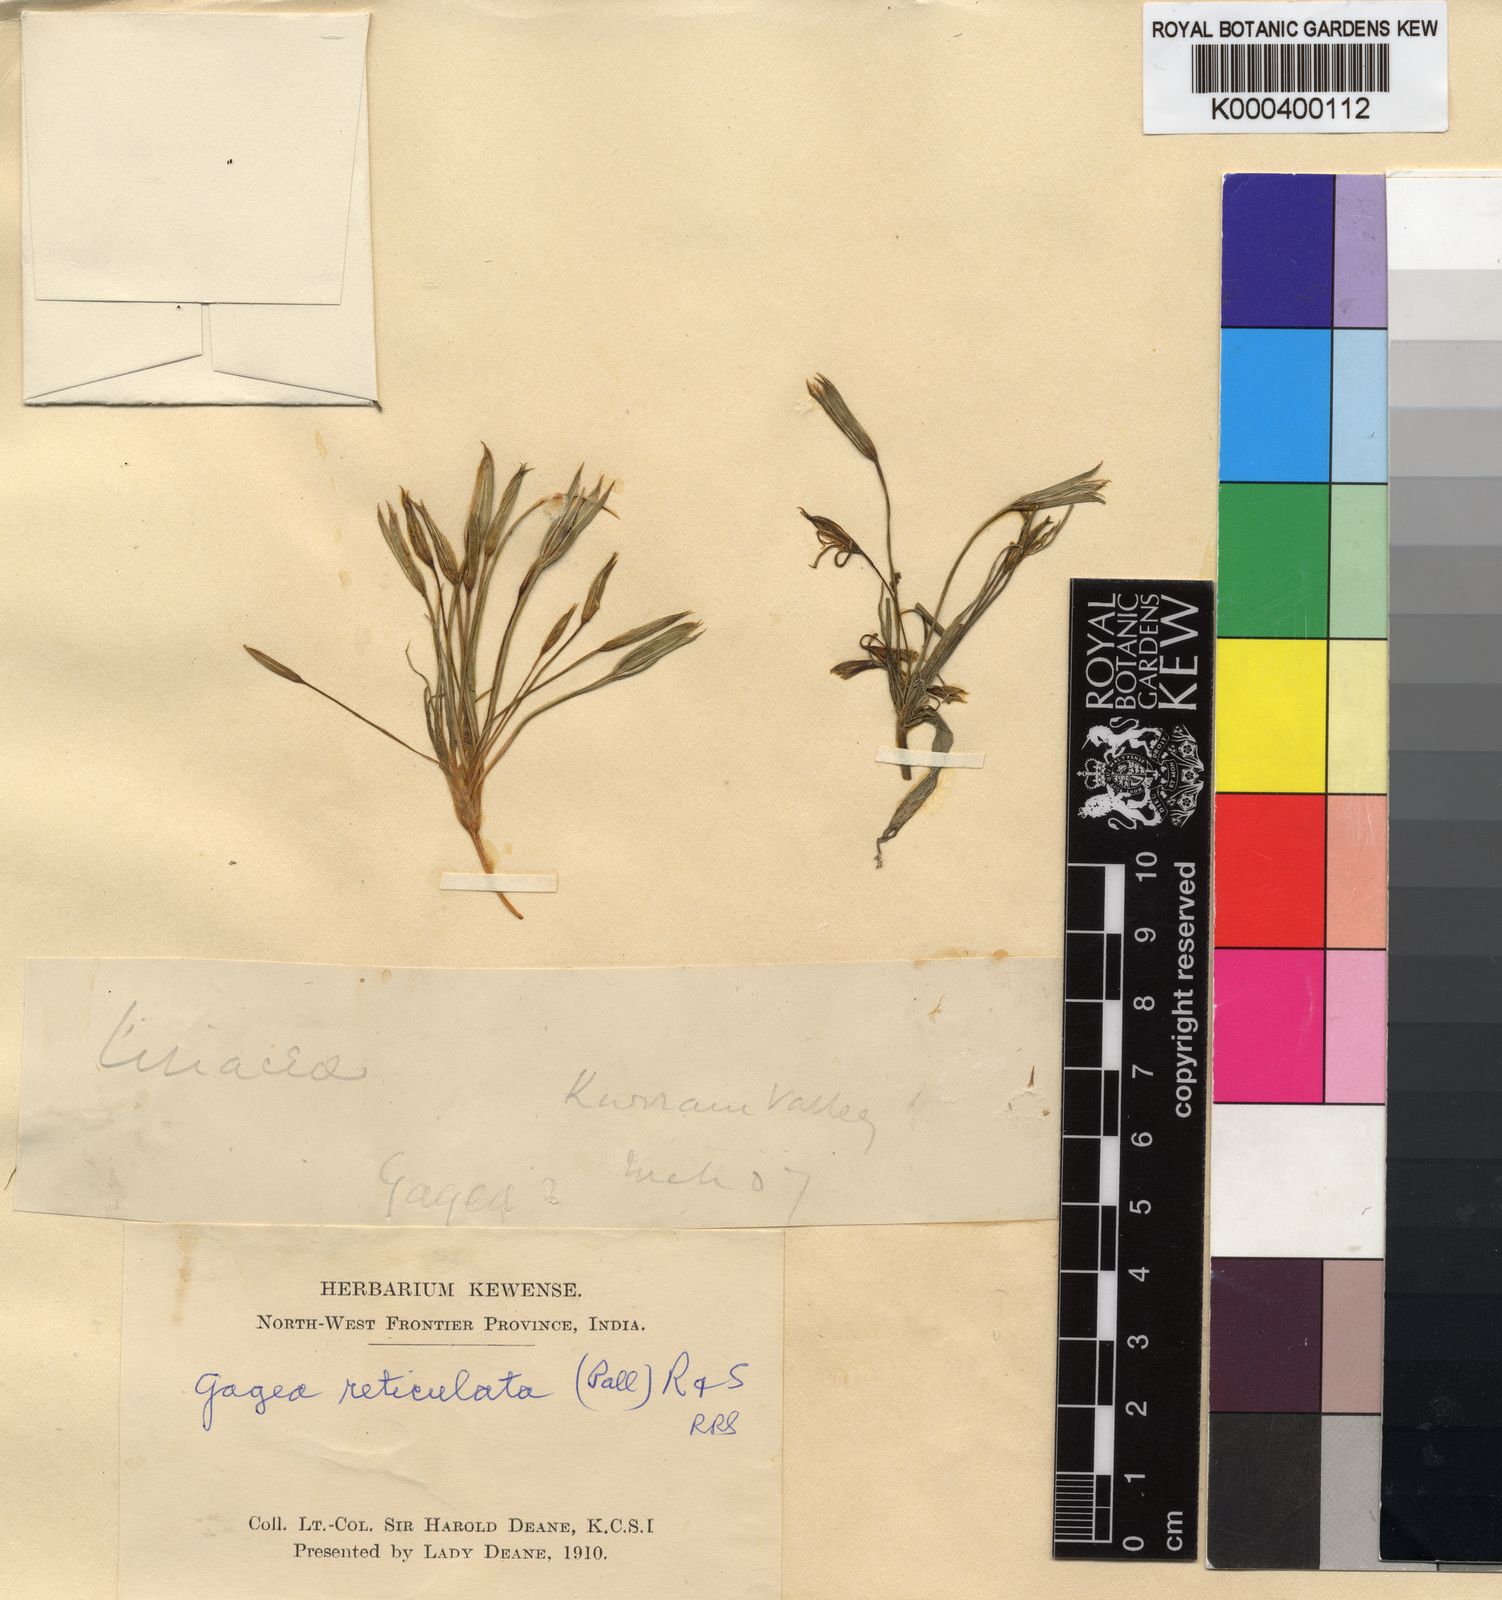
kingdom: Plantae
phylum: Tracheophyta
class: Liliopsida
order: Liliales
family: Liliaceae
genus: Gagea
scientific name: Gagea reticulata
